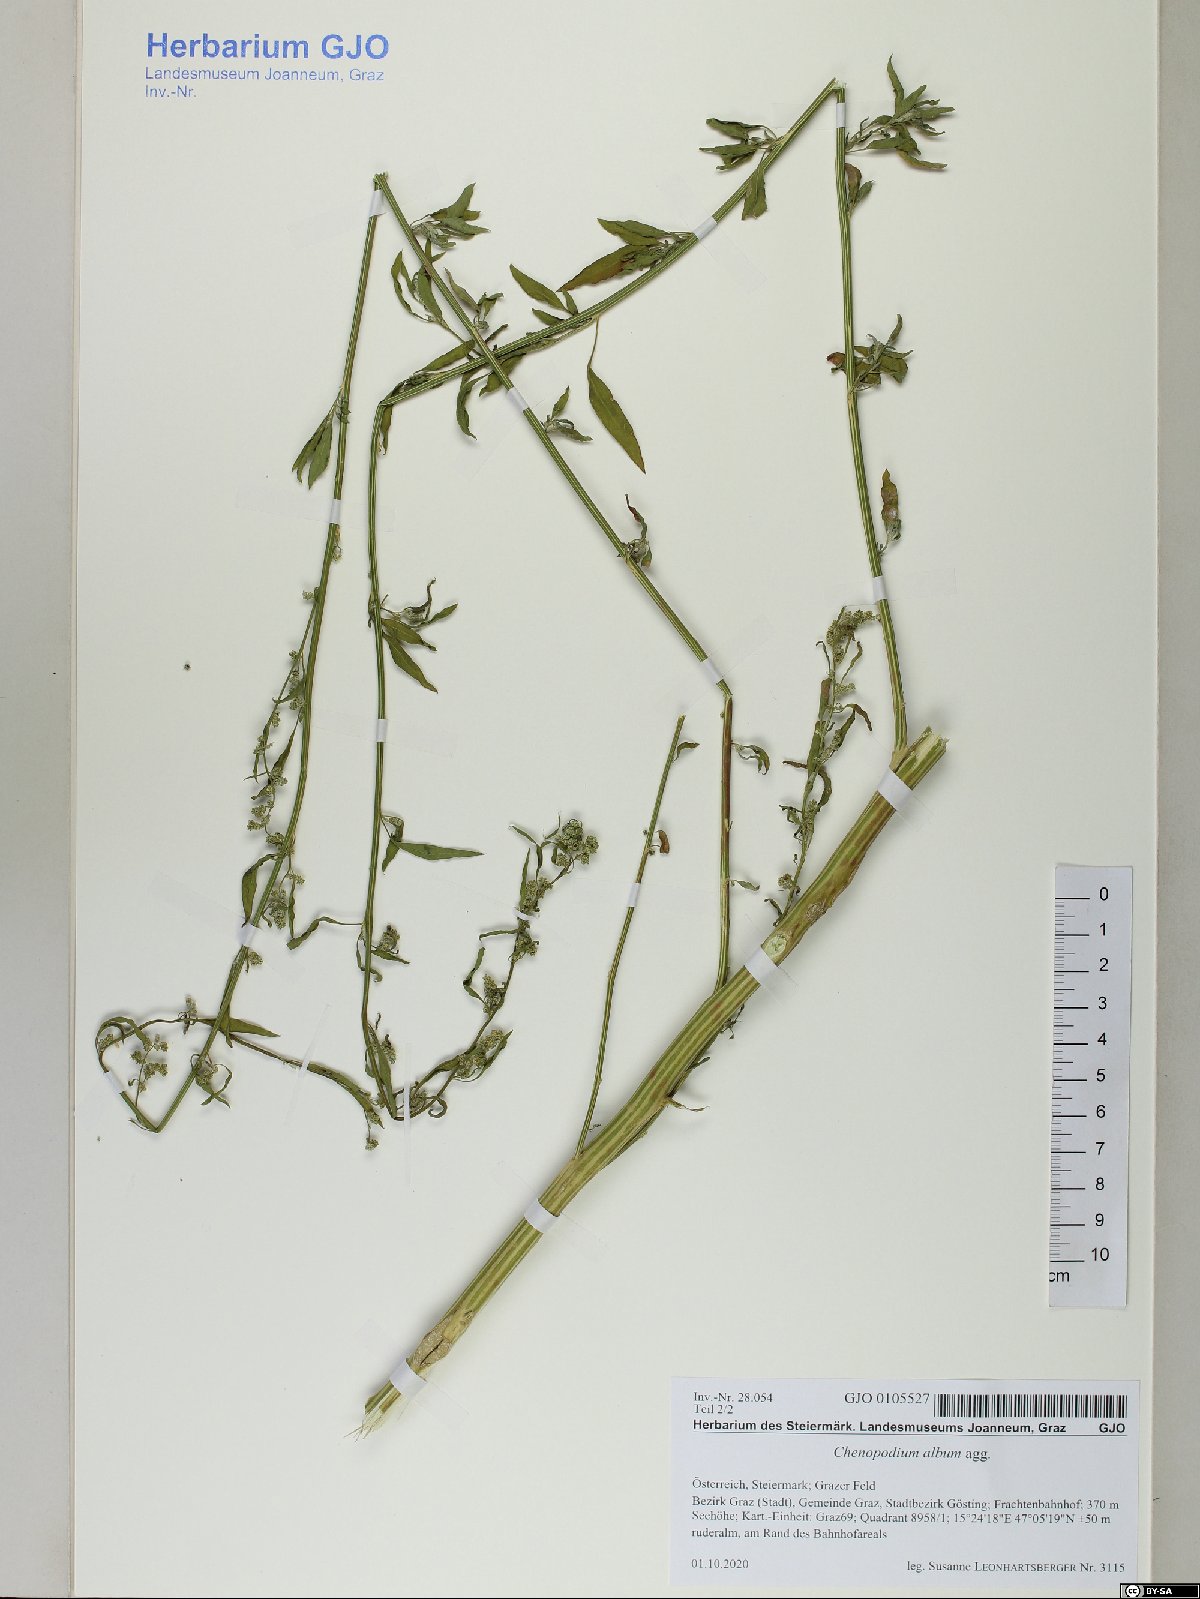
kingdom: Plantae
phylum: Tracheophyta
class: Magnoliopsida
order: Caryophyllales
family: Amaranthaceae
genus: Chenopodium
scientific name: Chenopodium album
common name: Fat-hen
